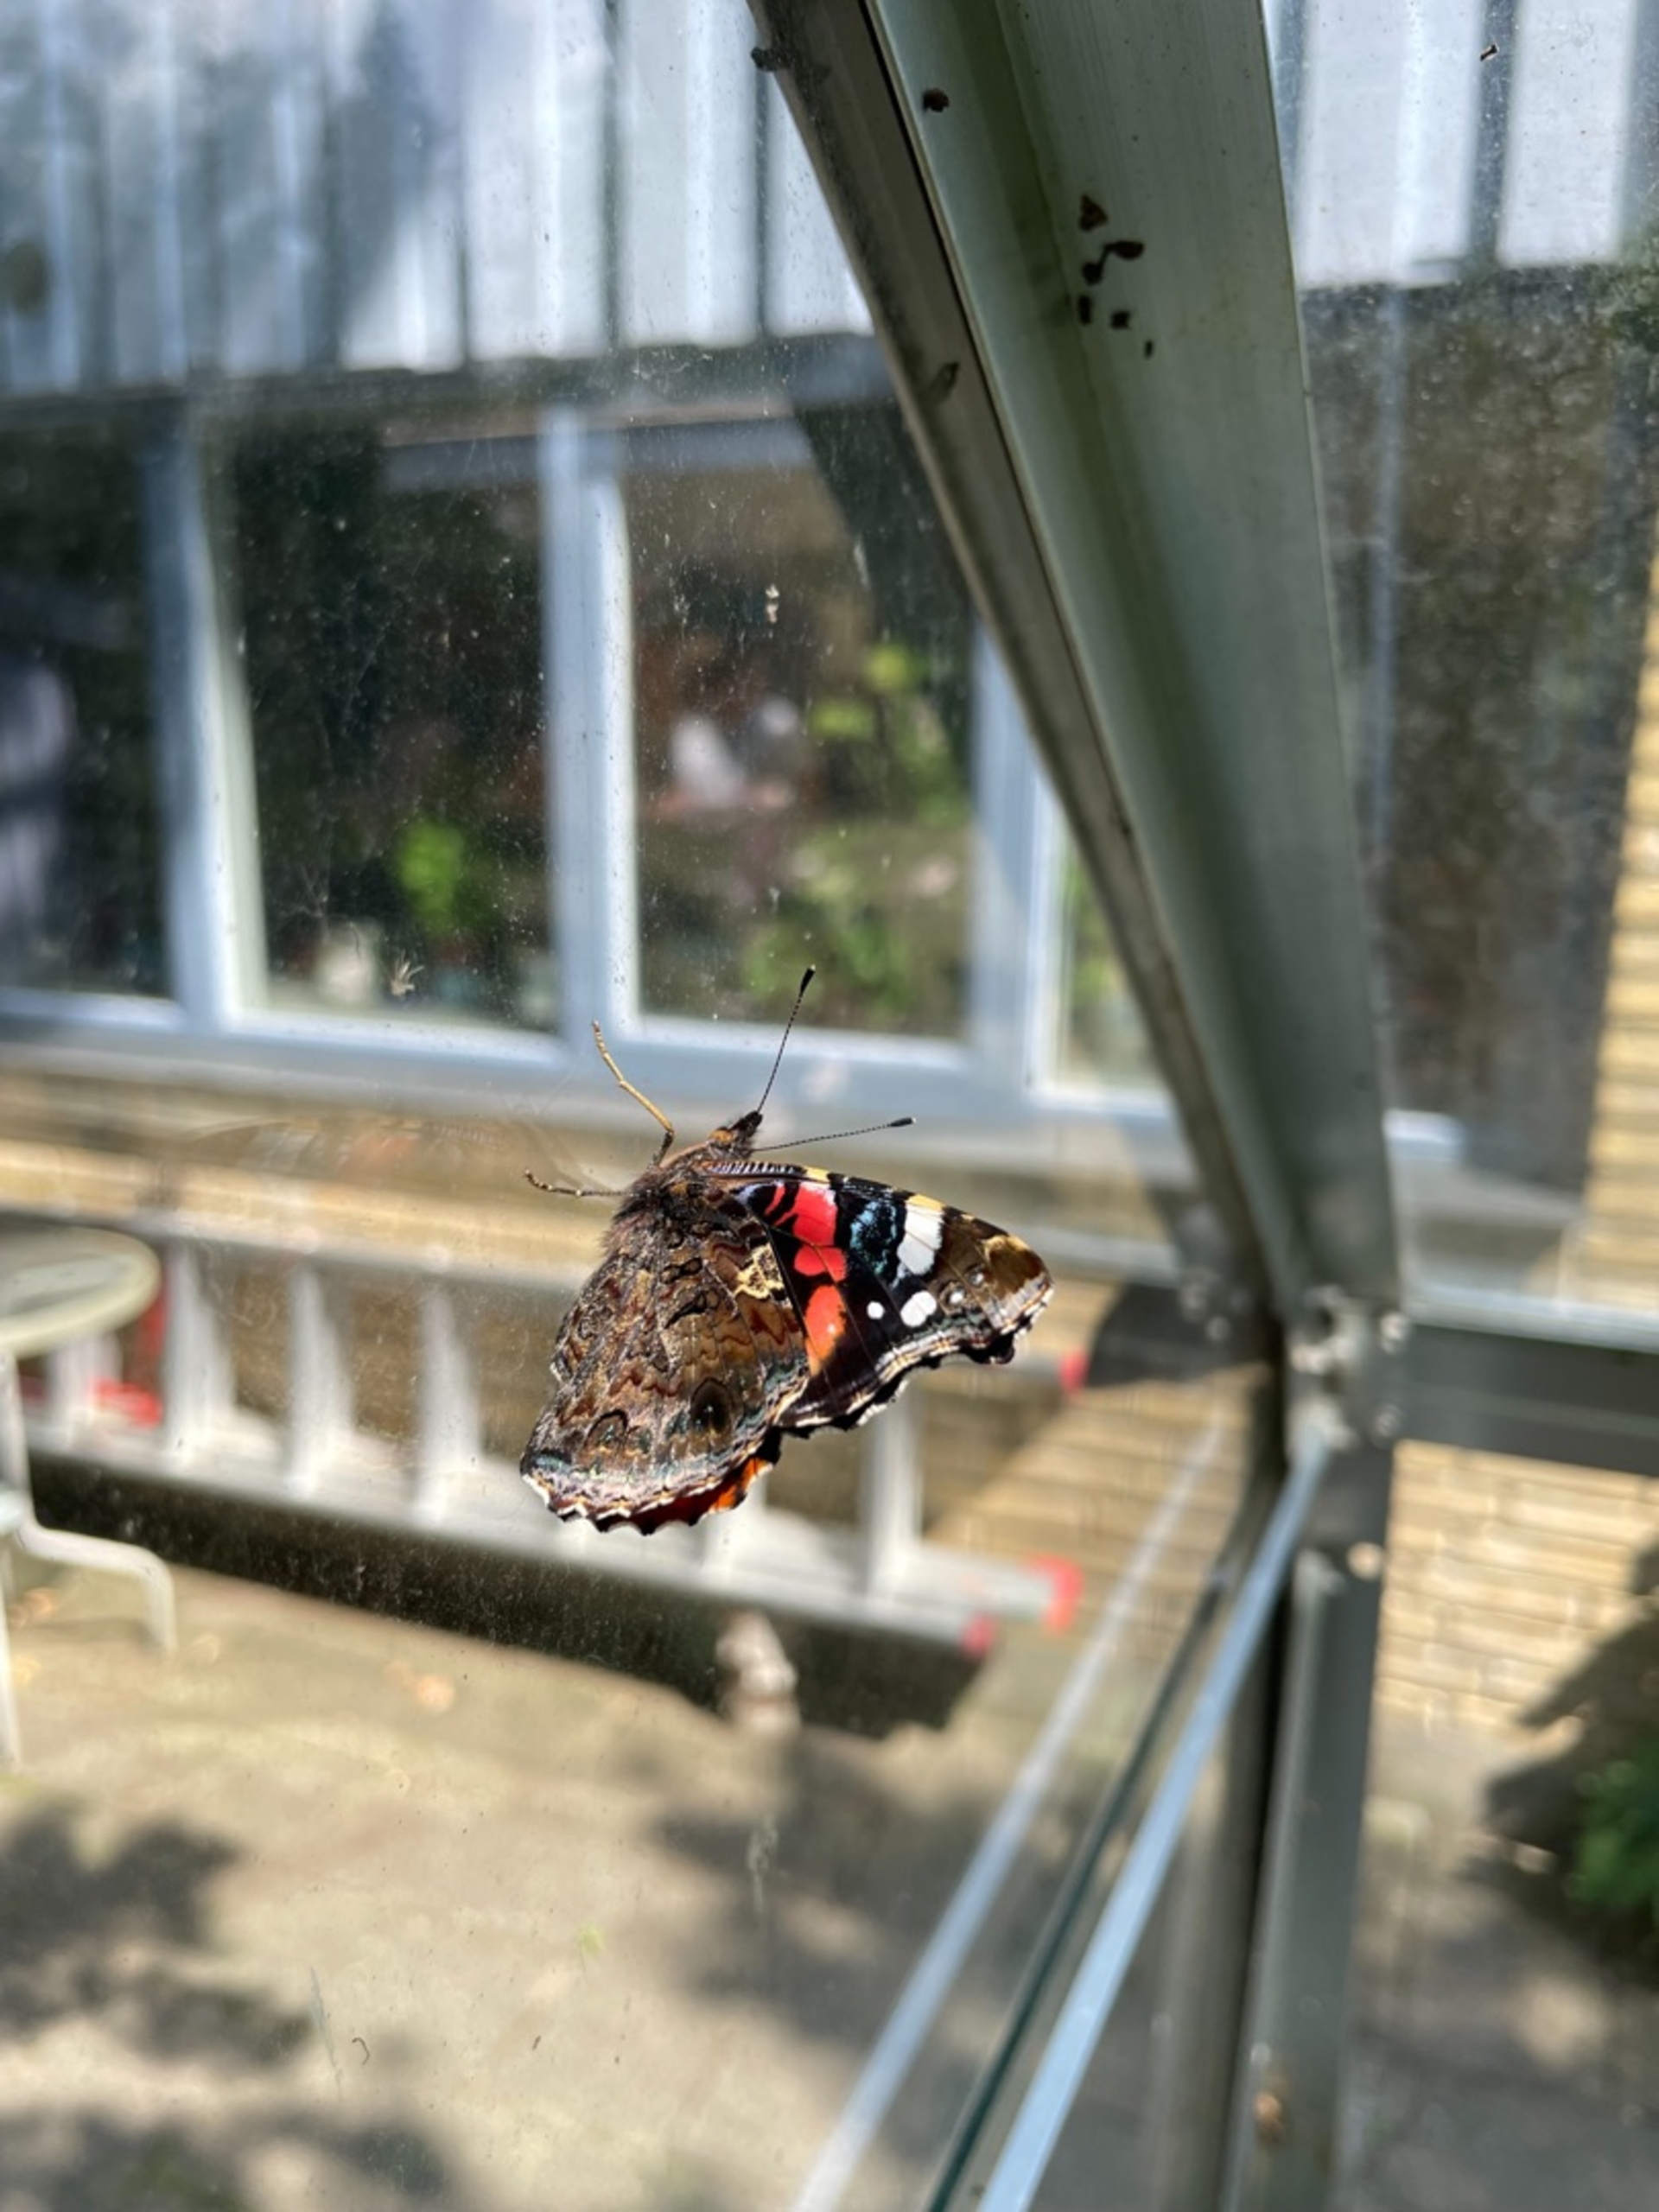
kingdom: Animalia
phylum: Arthropoda
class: Insecta
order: Lepidoptera
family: Nymphalidae
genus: Vanessa
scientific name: Vanessa atalanta
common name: Admiral
